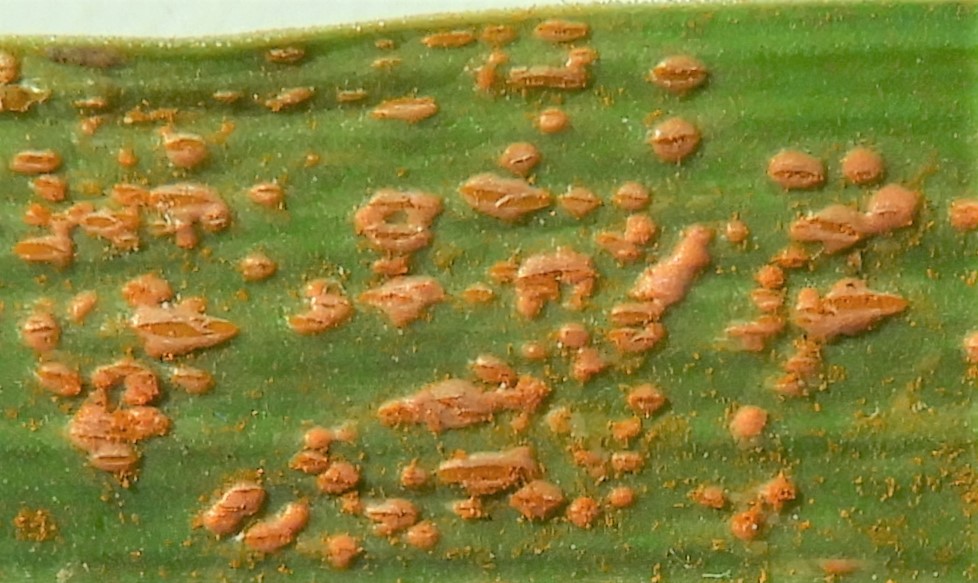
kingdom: Fungi
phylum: Basidiomycota
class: Pucciniomycetes
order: Pucciniales
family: Pucciniaceae
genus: Puccinia
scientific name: Puccinia porri
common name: Allium rust
